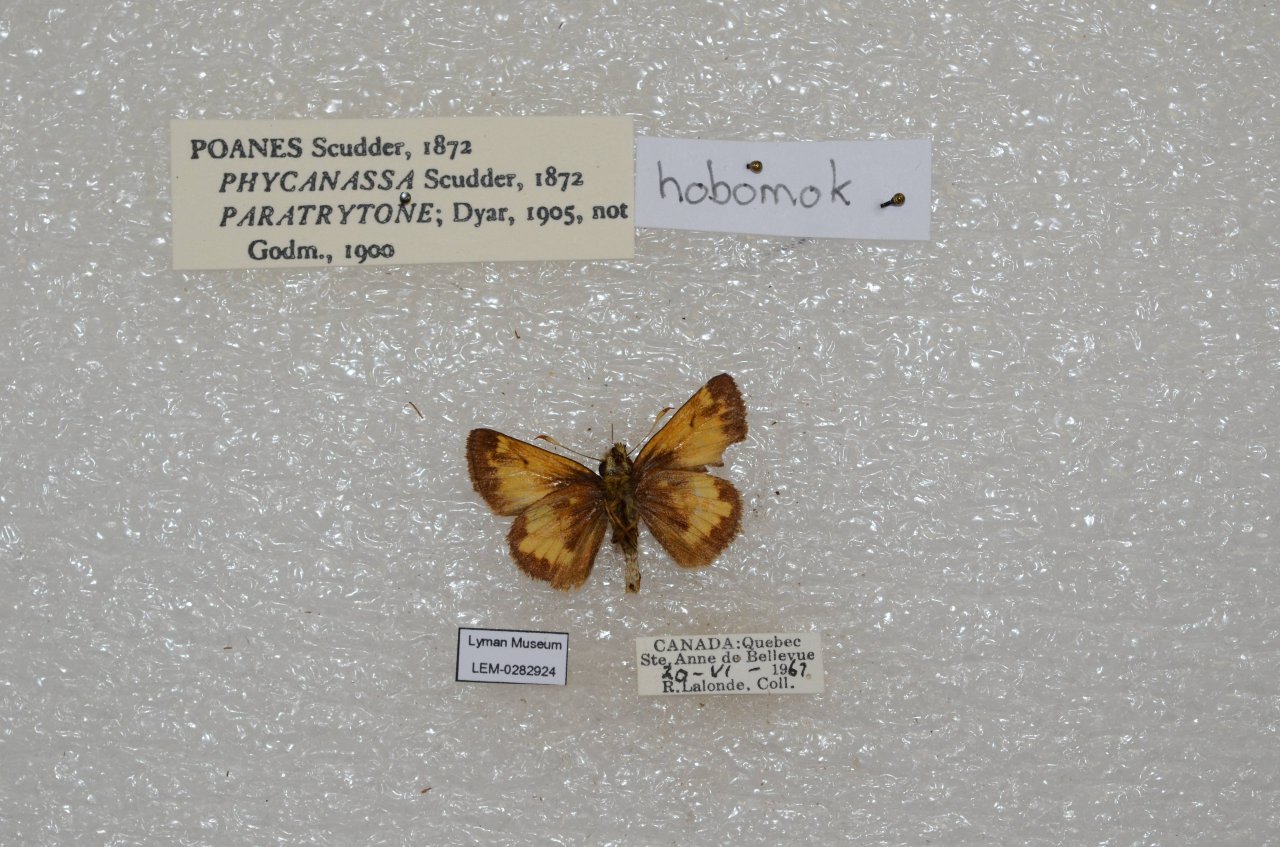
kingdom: Animalia
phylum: Arthropoda
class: Insecta
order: Lepidoptera
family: Hesperiidae
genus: Lon
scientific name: Lon hobomok
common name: Hobomok Skipper
